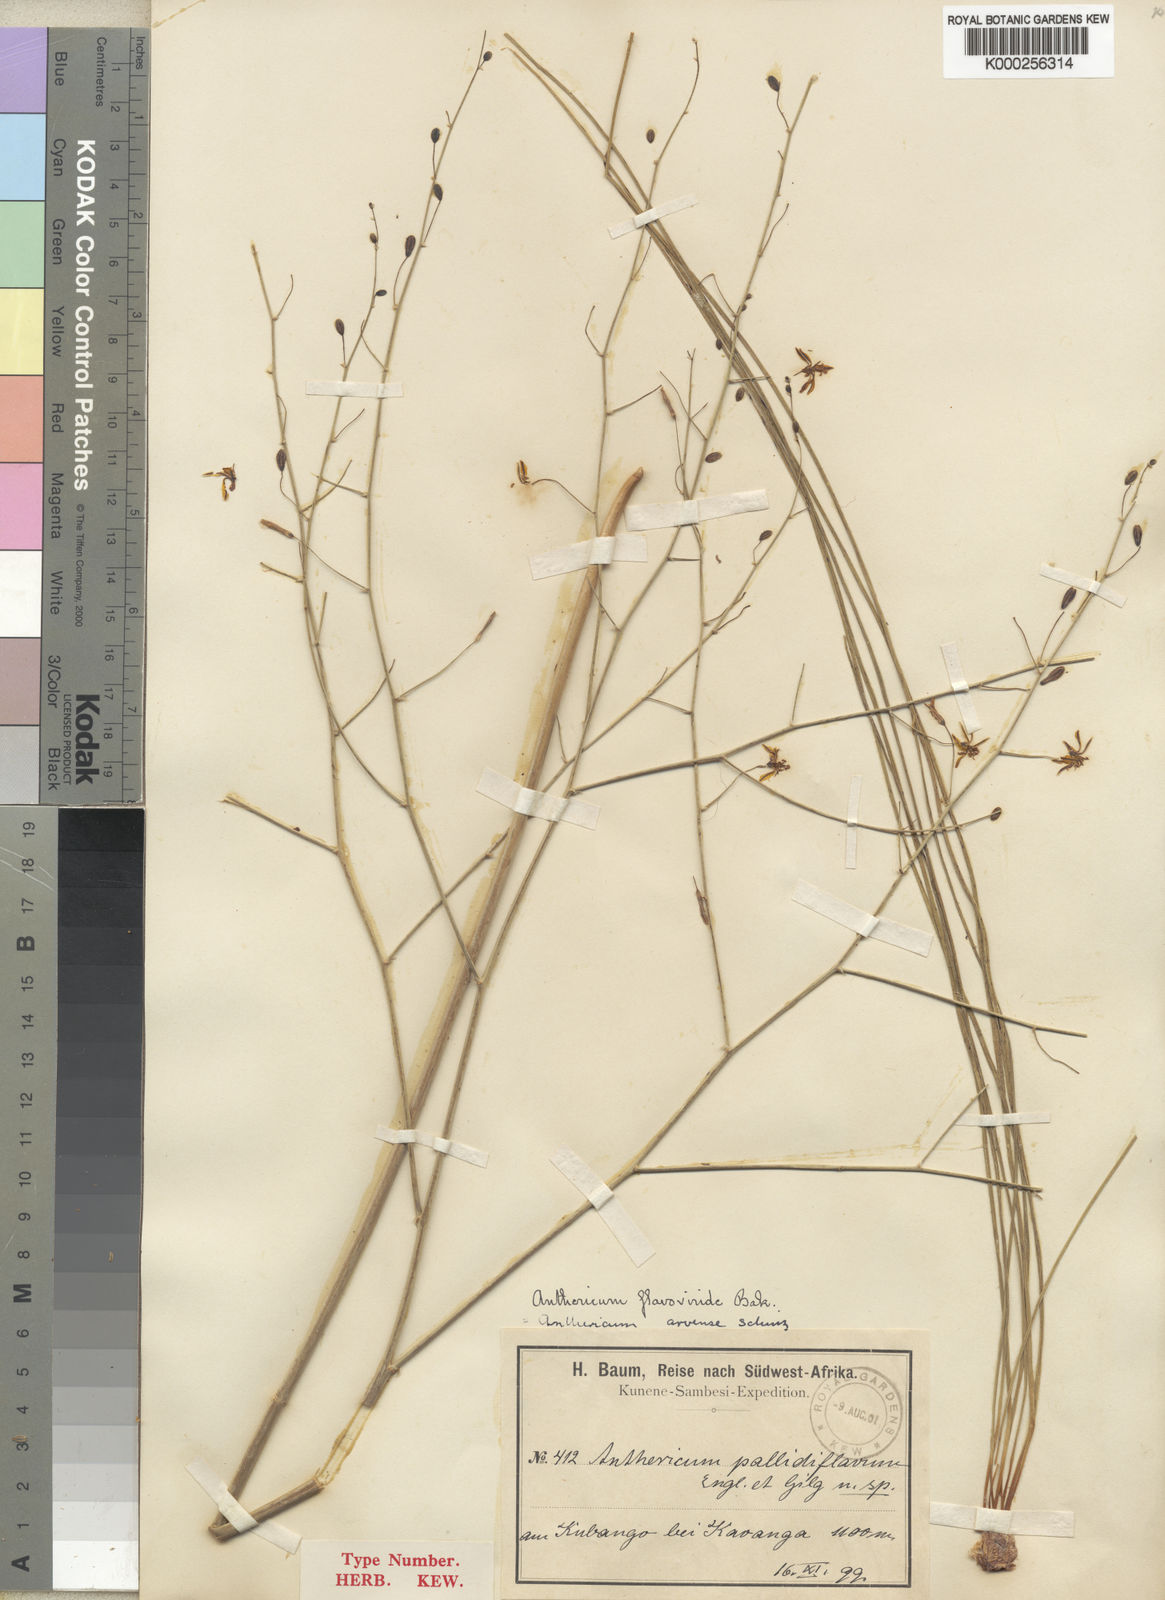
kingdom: Plantae
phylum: Tracheophyta
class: Liliopsida
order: Asparagales
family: Asphodelaceae
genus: Trachyandra
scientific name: Trachyandra arvensis
